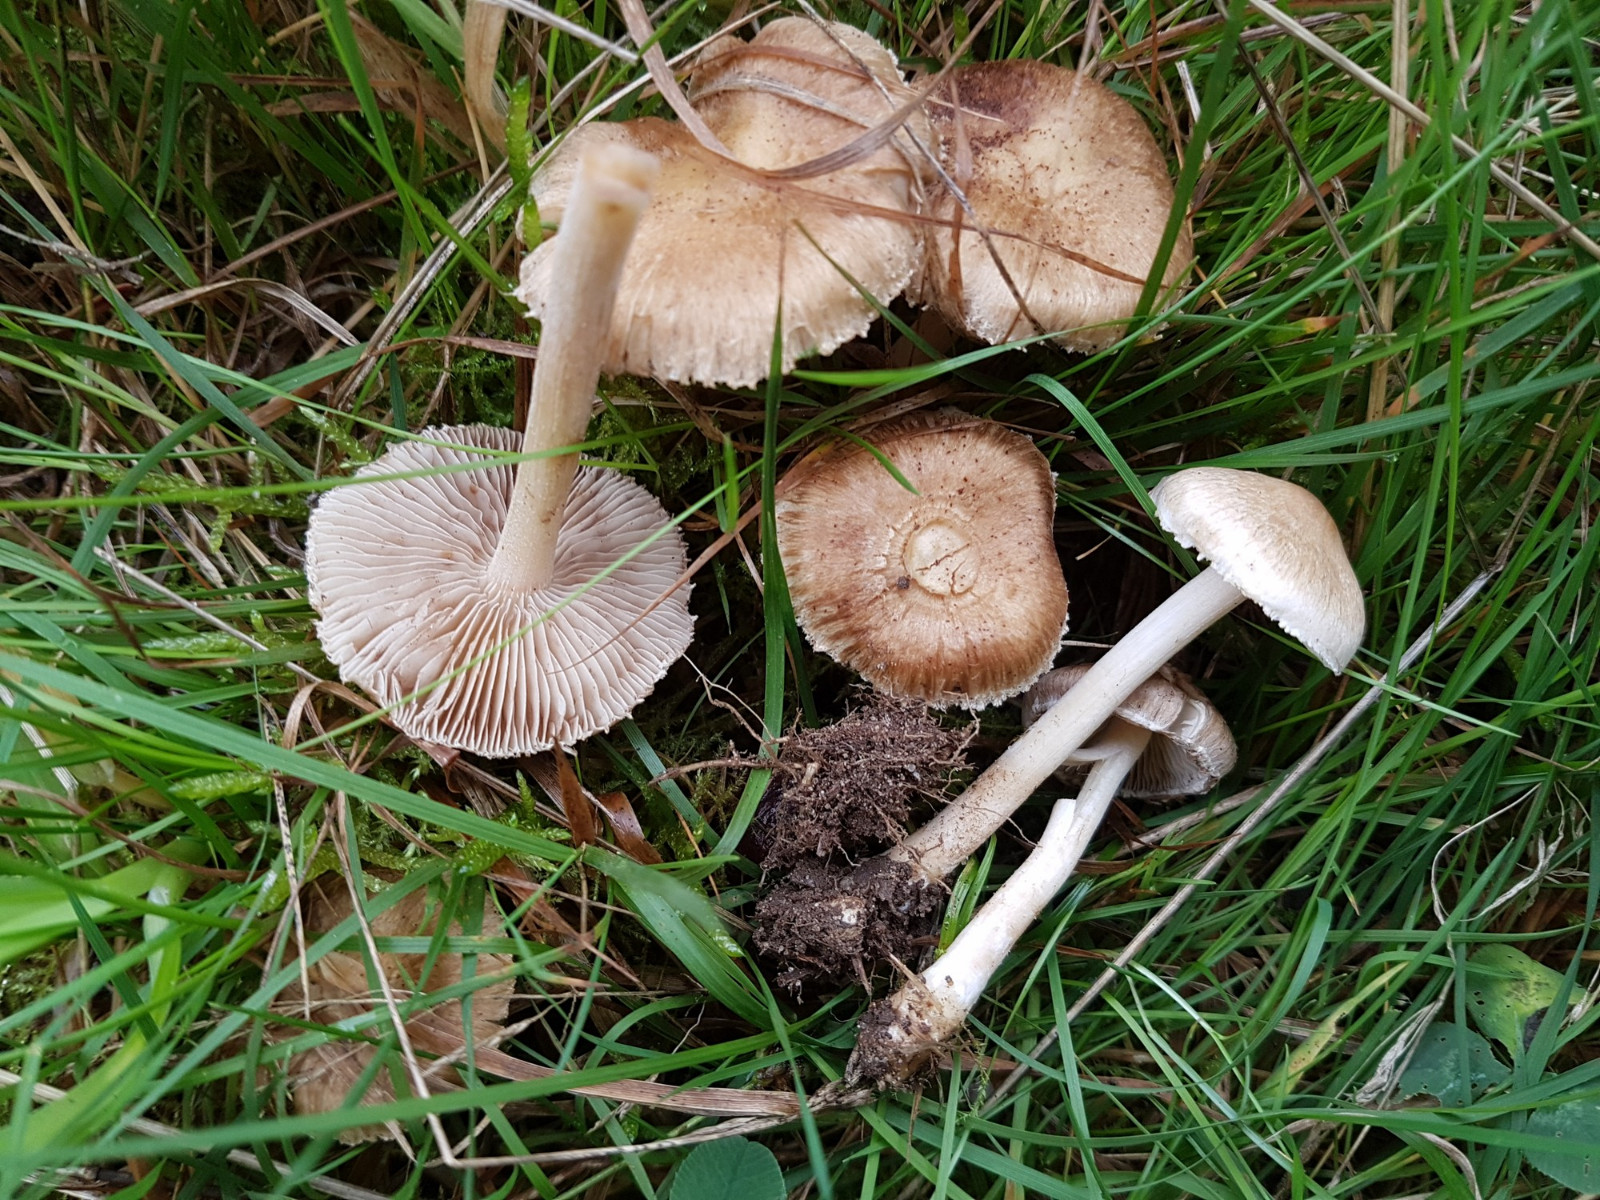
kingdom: Fungi
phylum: Basidiomycota
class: Agaricomycetes
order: Agaricales
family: Inocybaceae
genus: Inocybe
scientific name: Inocybe sindonia
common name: bleg trævlhat
